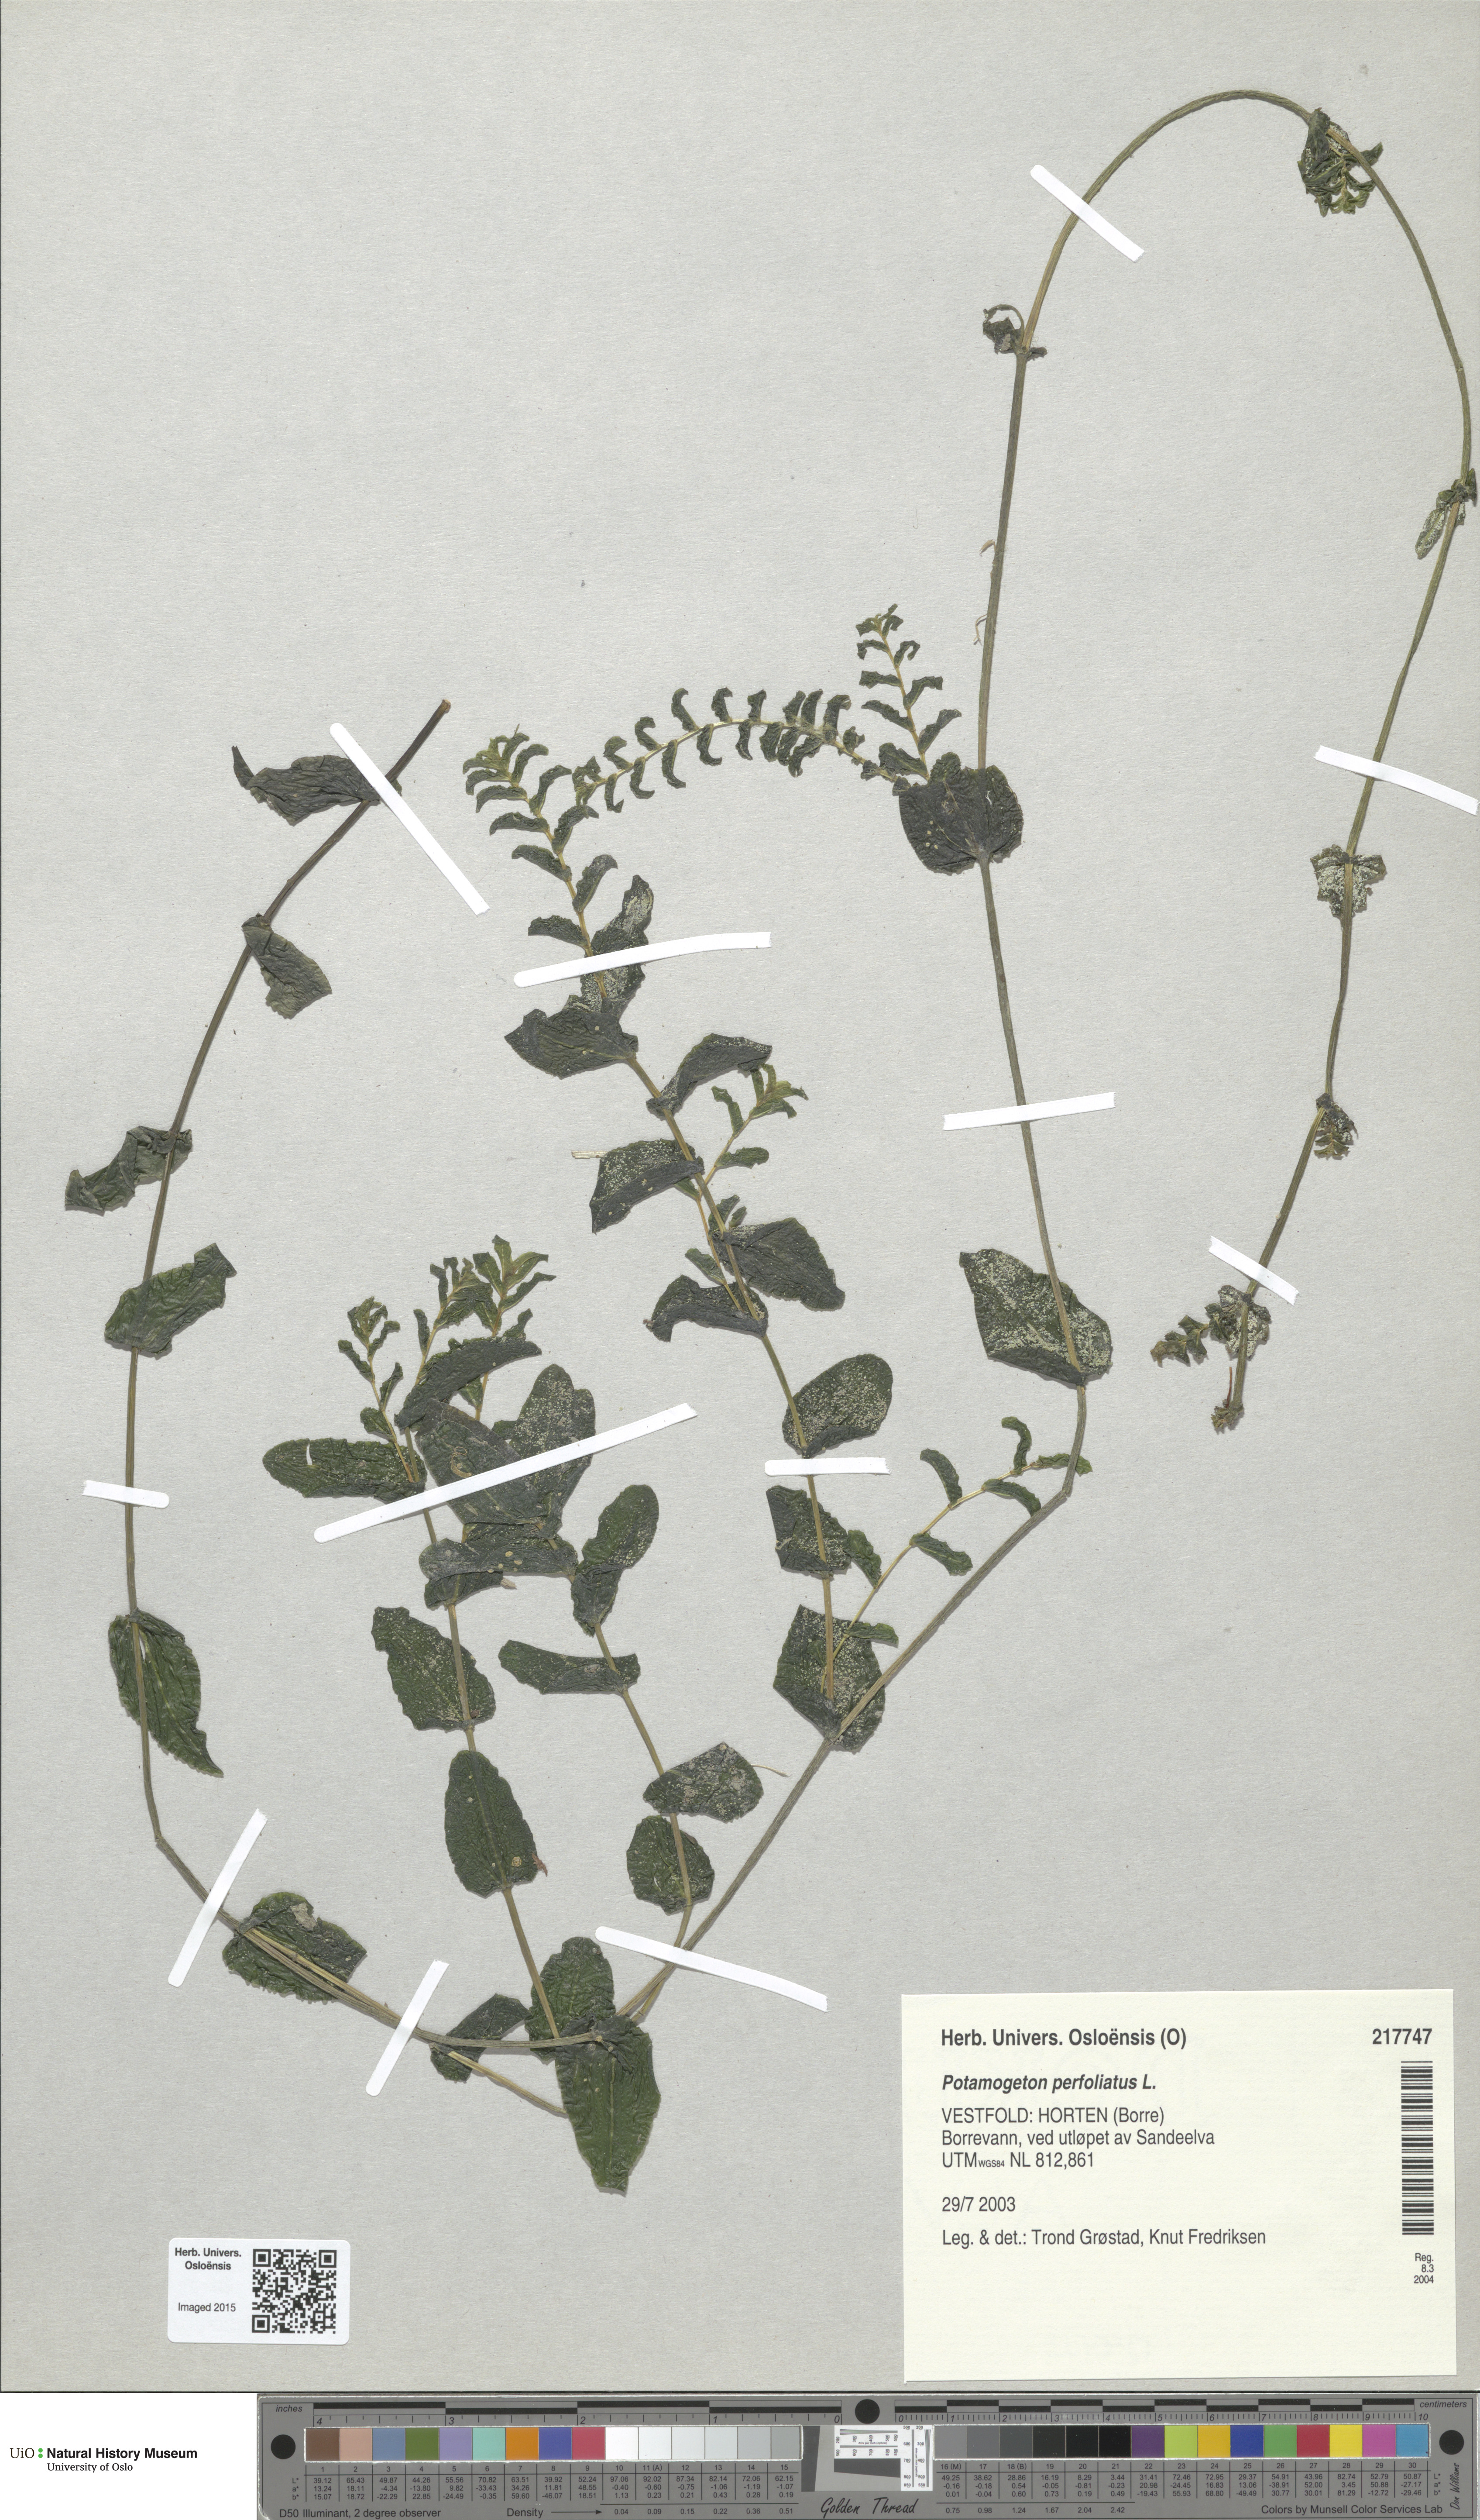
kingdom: Plantae
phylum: Tracheophyta
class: Liliopsida
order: Alismatales
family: Potamogetonaceae
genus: Potamogeton
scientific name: Potamogeton perfoliatus
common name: Perfoliate pondweed
